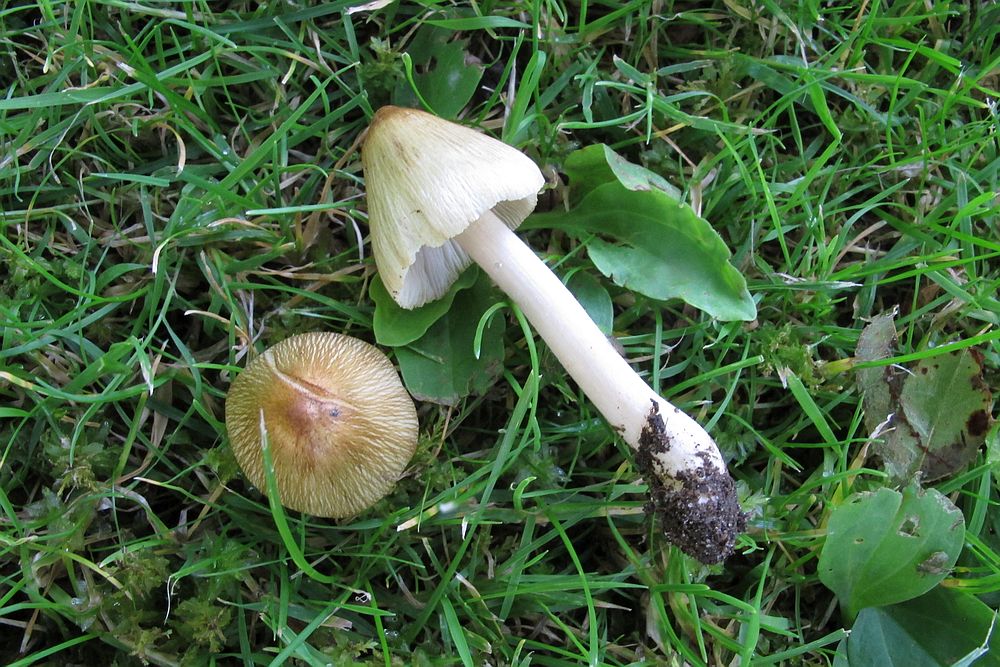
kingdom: Fungi
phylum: Basidiomycota
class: Agaricomycetes
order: Agaricales
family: Inocybaceae
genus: Pseudosperma
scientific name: Pseudosperma
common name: trævlhat
